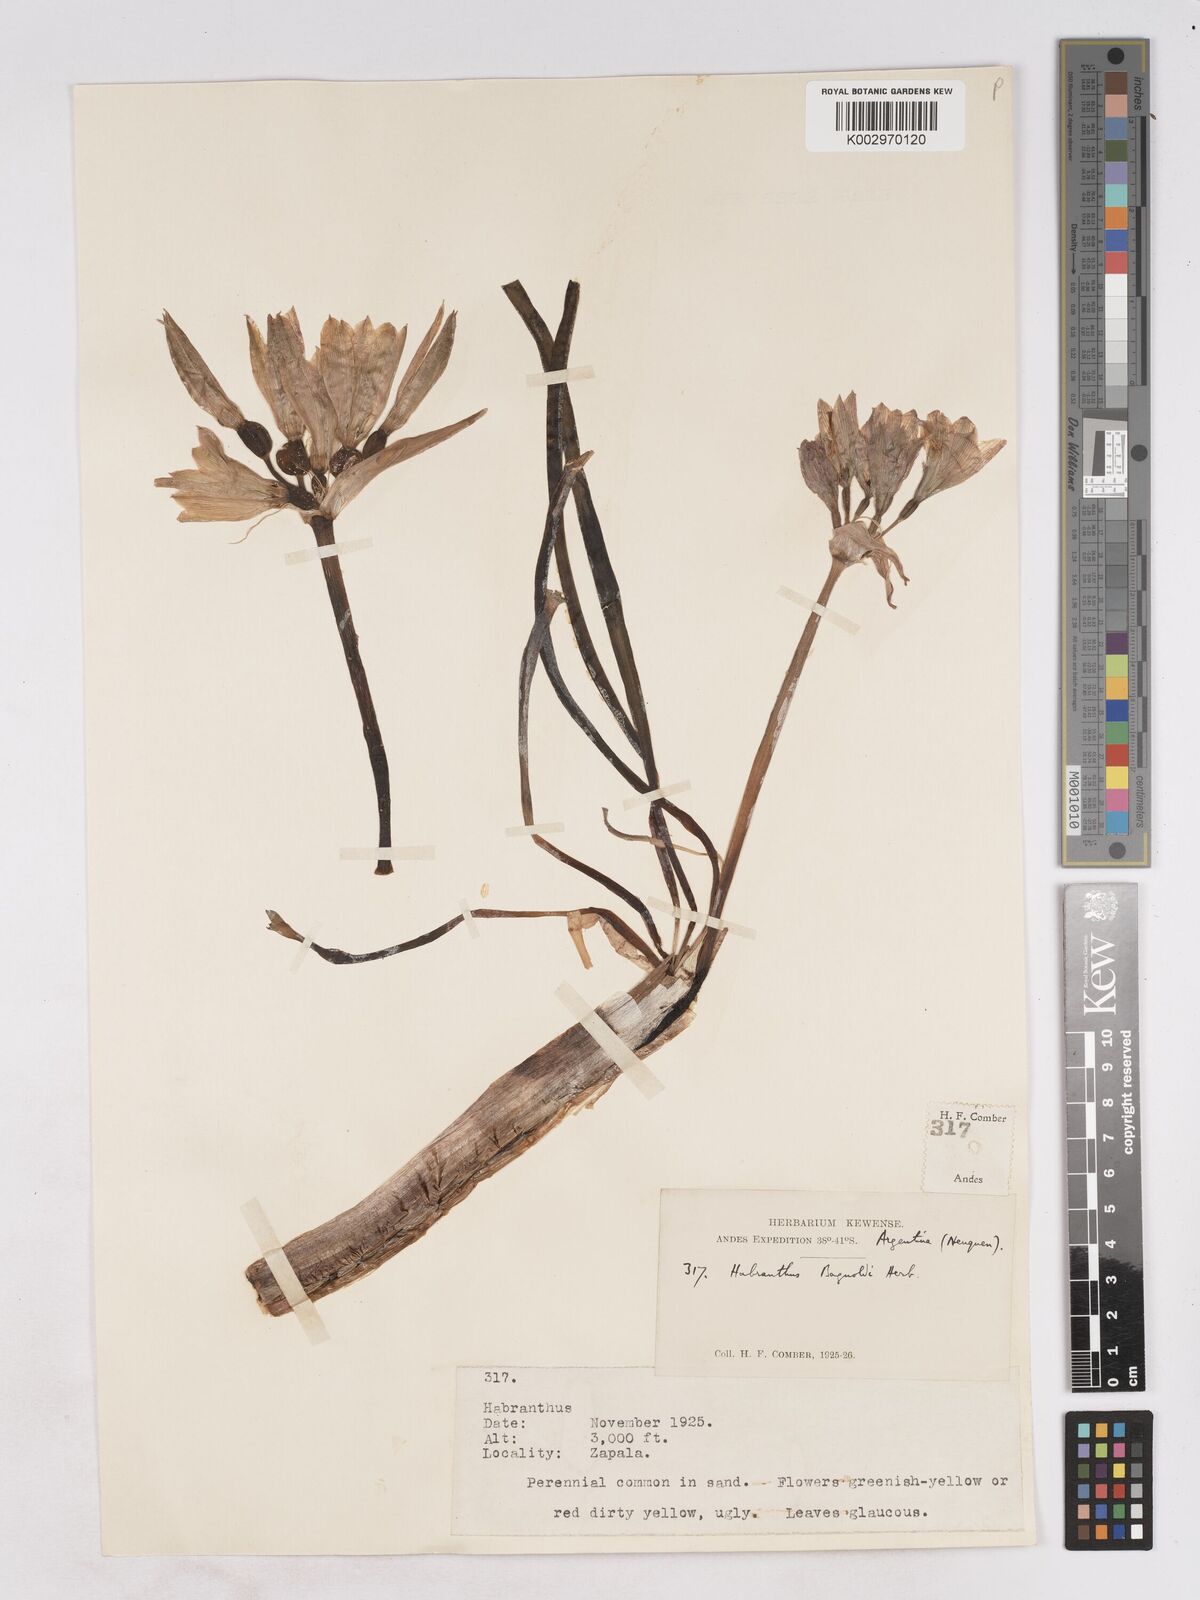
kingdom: Plantae
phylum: Tracheophyta
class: Liliopsida
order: Asparagales
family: Amaryllidaceae
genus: Zephyranthes
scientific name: Zephyranthes bagnoldii
